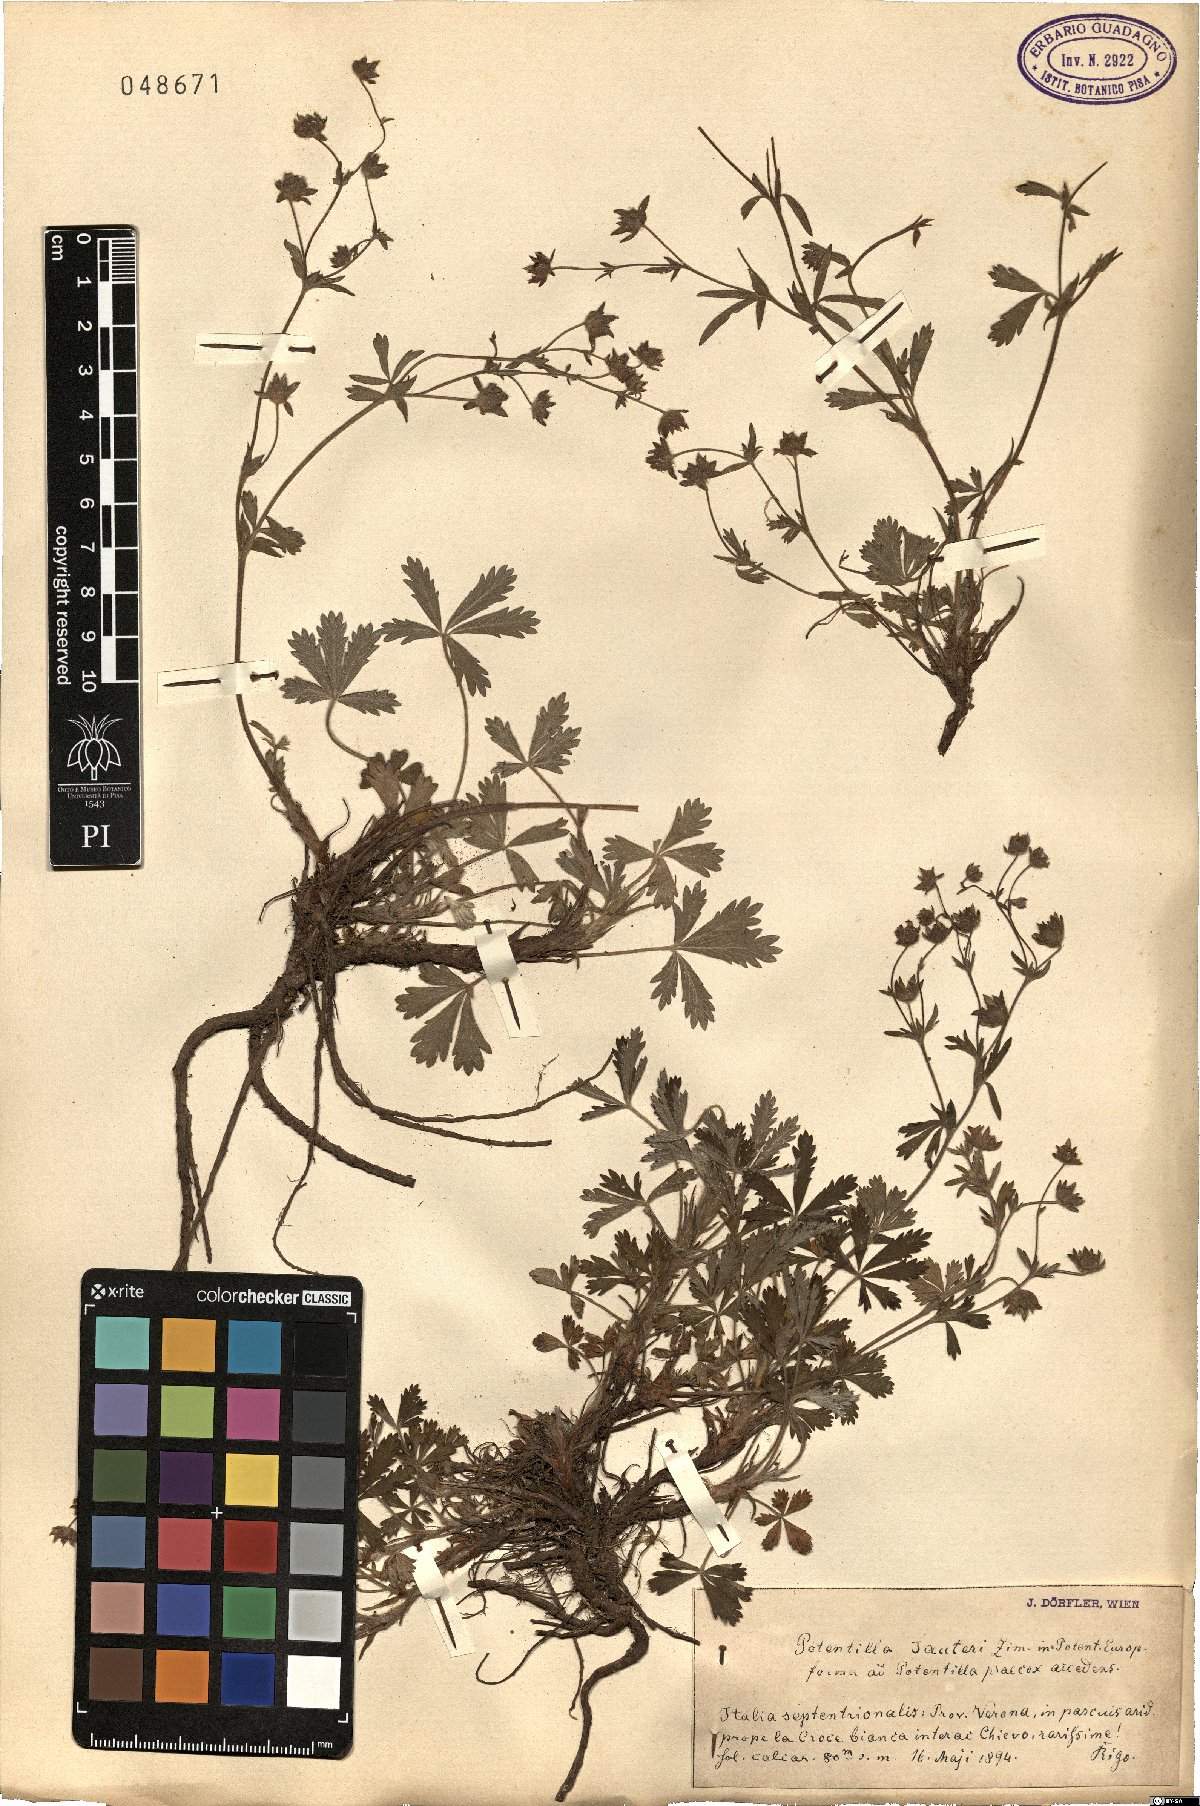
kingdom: Plantae
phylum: Tracheophyta
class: Magnoliopsida
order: Rosales
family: Rosaceae
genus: Potentilla
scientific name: Potentilla argentea
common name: Hoary cinquefoil
